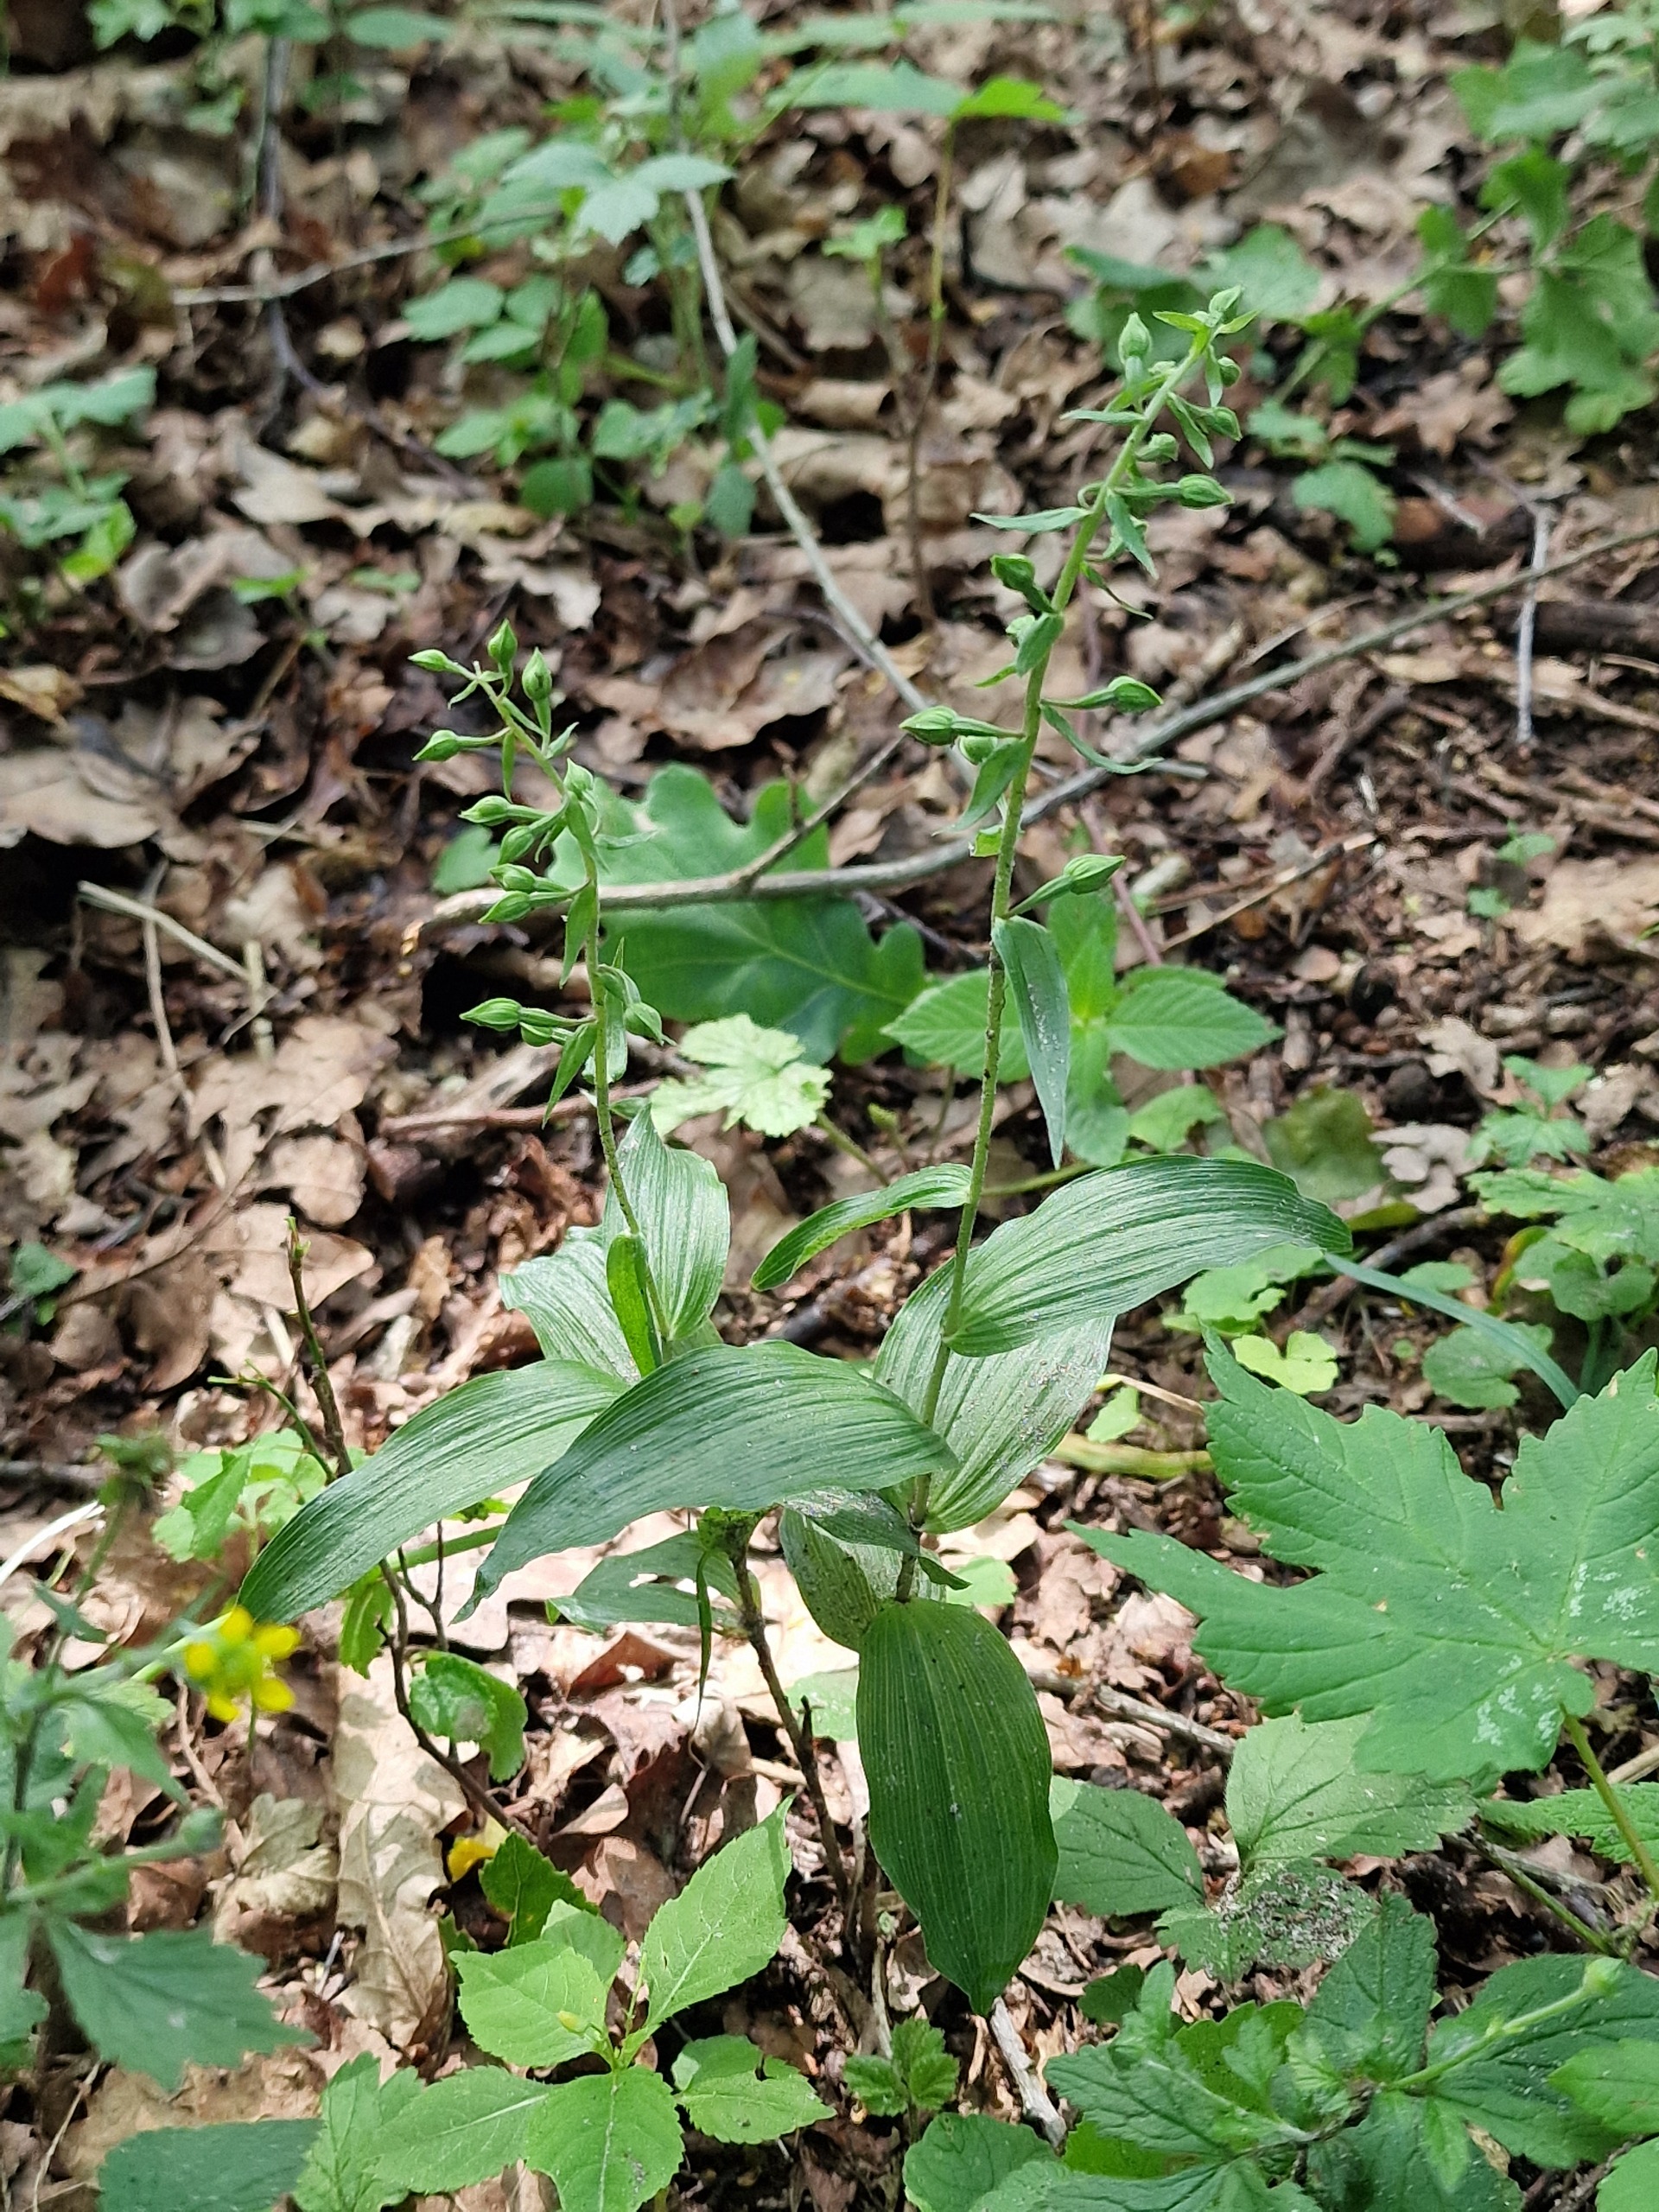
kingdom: Plantae
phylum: Tracheophyta
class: Liliopsida
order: Asparagales
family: Orchidaceae
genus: Epipactis
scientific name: Epipactis helleborine
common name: Skov-hullæbe
